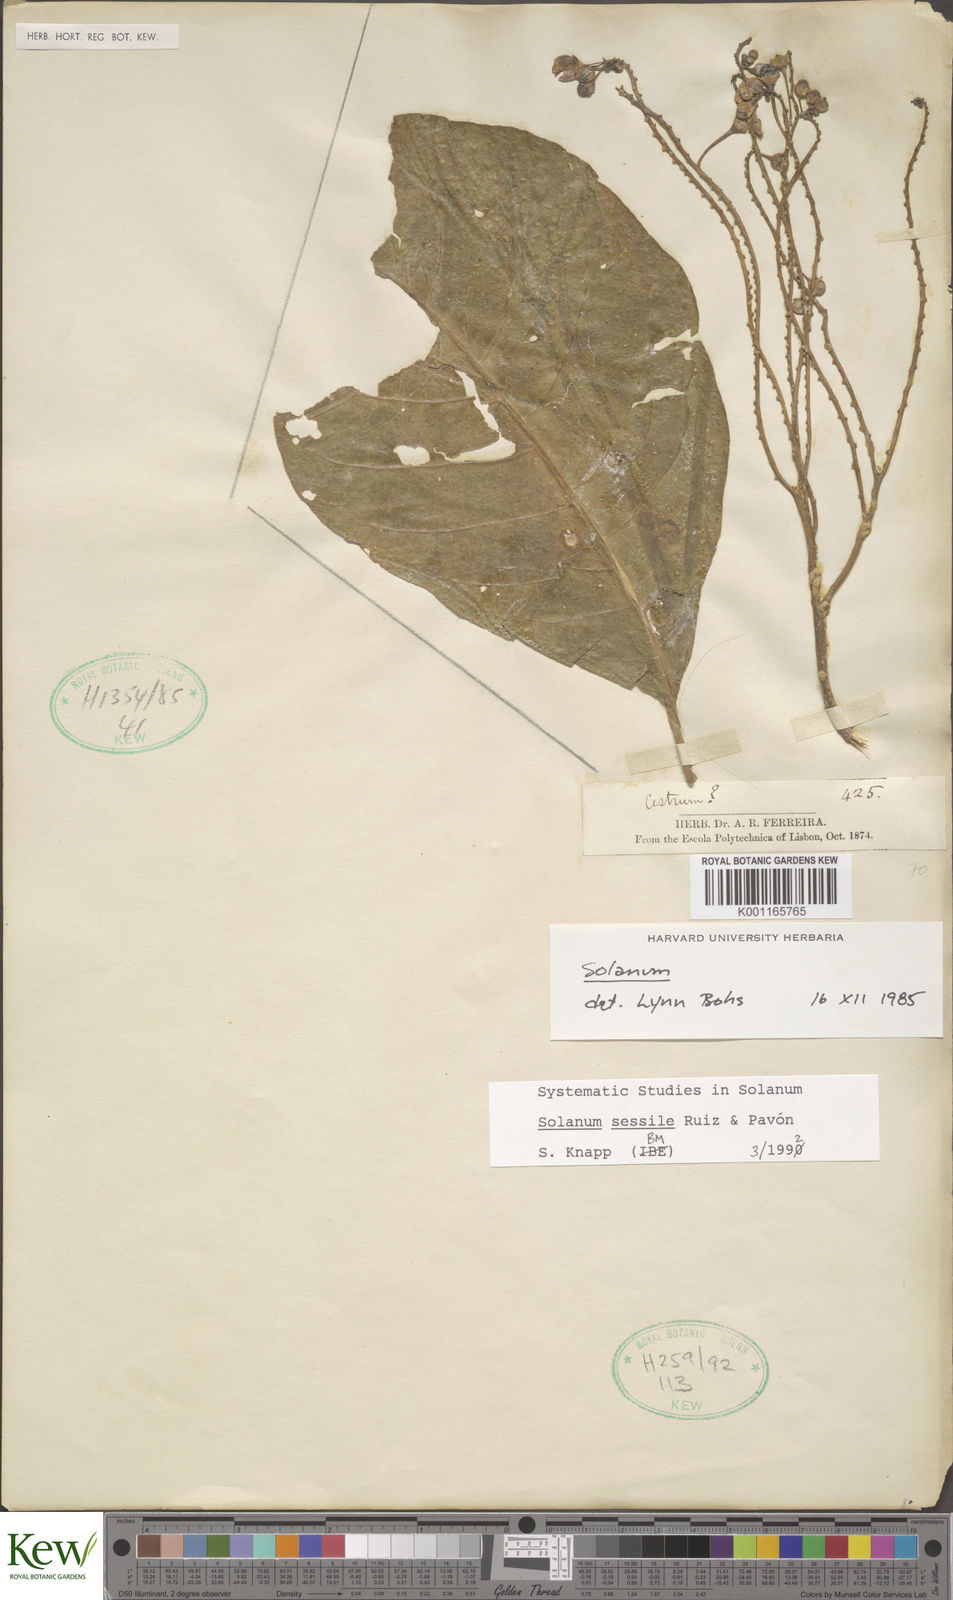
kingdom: Plantae
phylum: Tracheophyta
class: Magnoliopsida
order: Solanales
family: Solanaceae
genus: Solanum
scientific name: Solanum sessile
